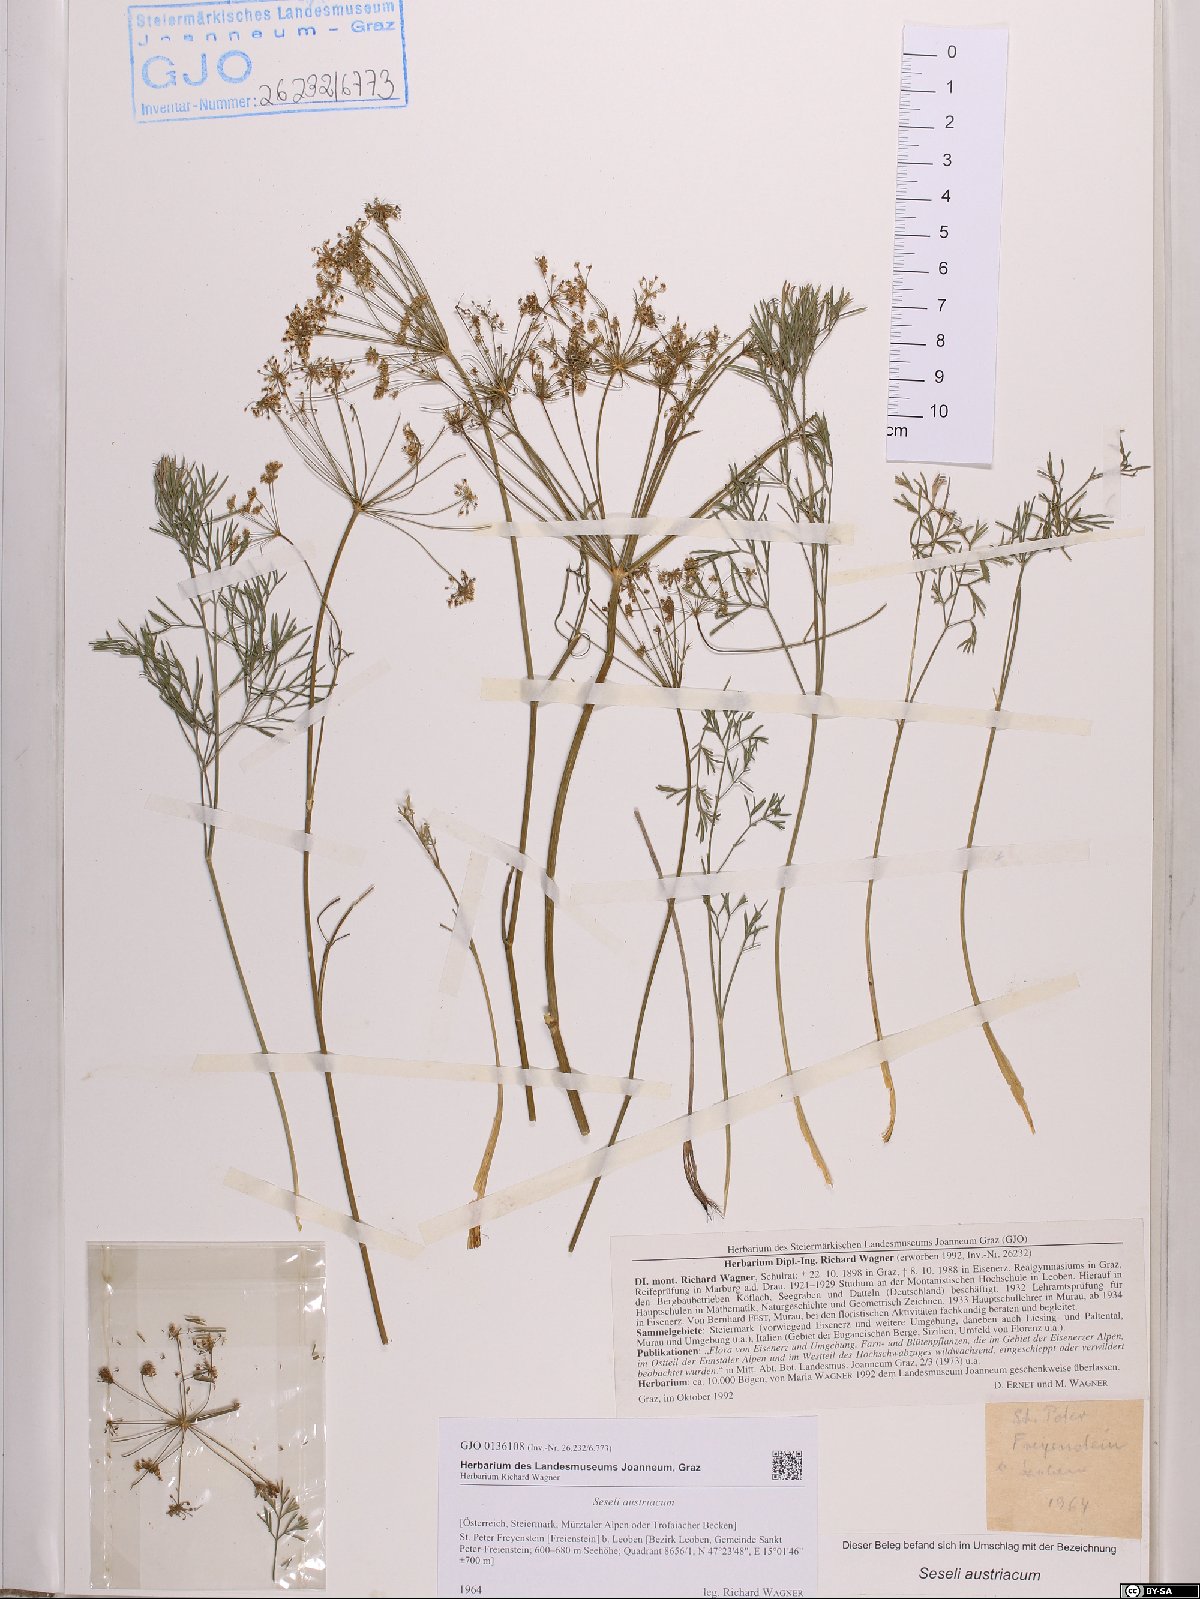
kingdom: Plantae
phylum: Tracheophyta
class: Magnoliopsida
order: Apiales
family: Apiaceae
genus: Seseli
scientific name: Seseli austriacum
